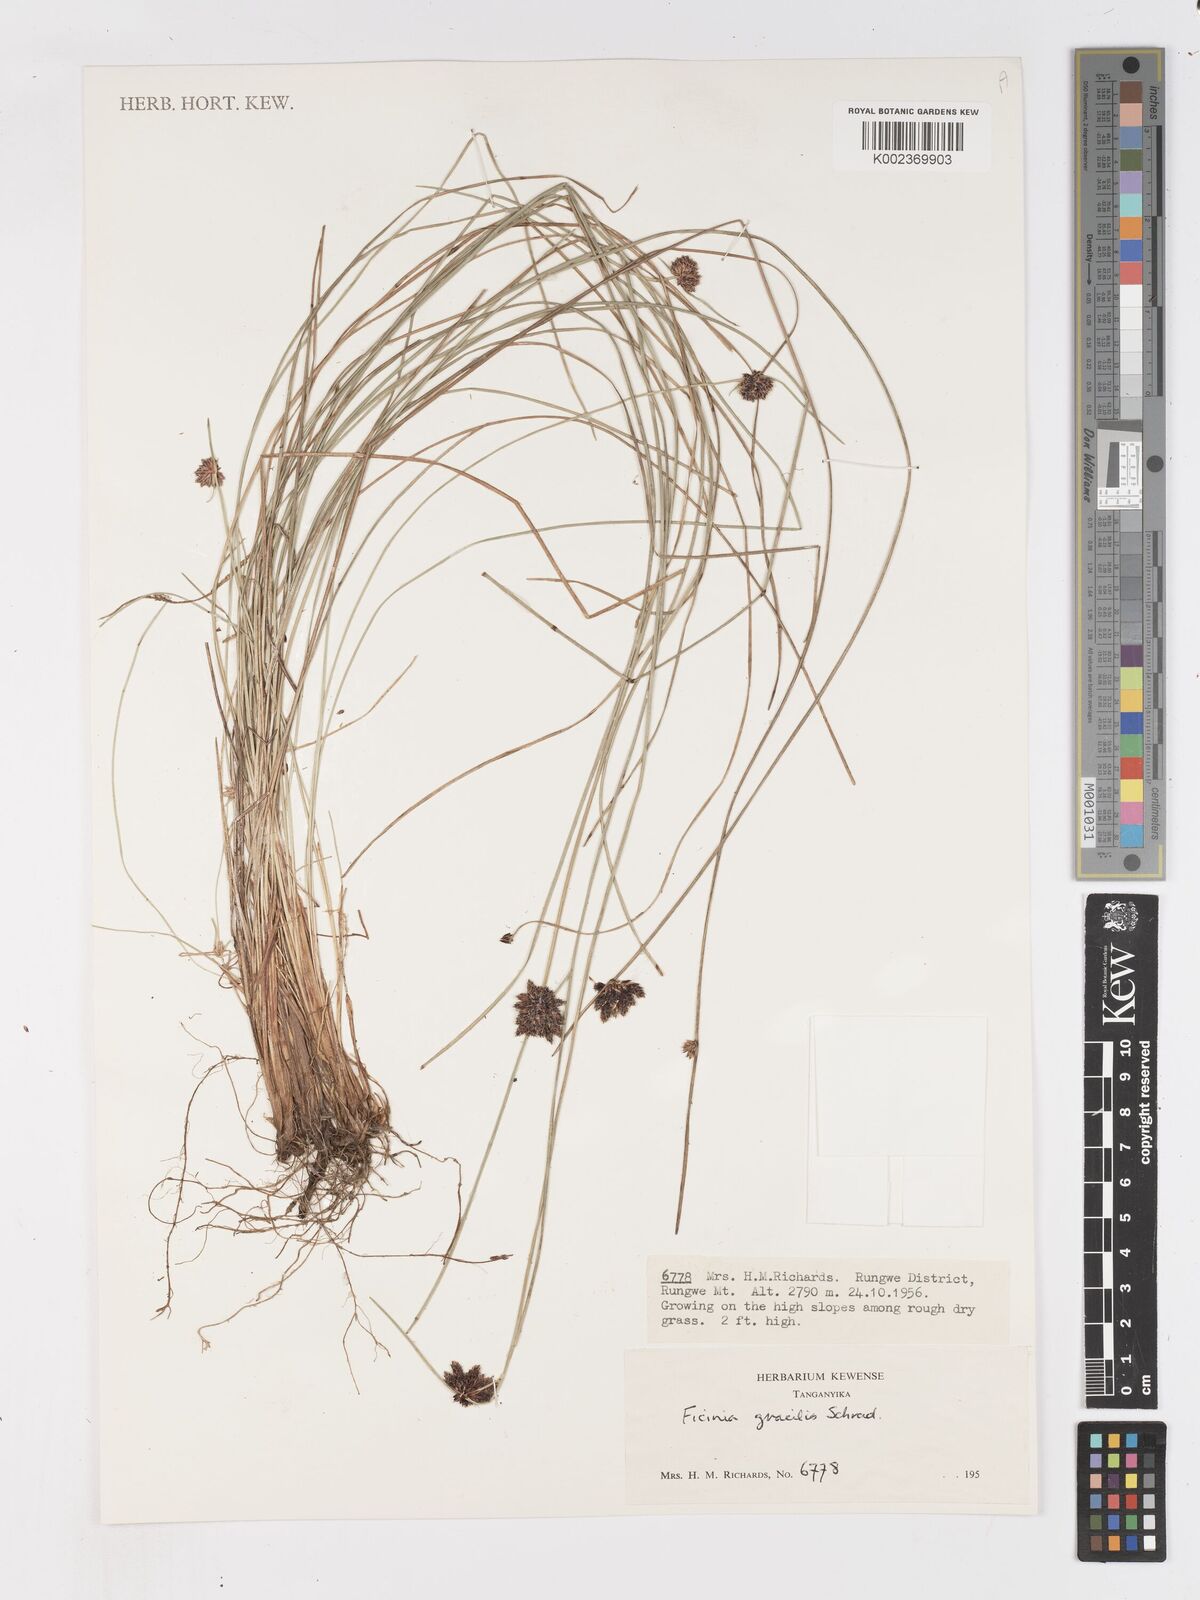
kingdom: Plantae
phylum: Tracheophyta
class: Liliopsida
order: Poales
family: Cyperaceae
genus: Ficinia
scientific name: Ficinia gracilis
